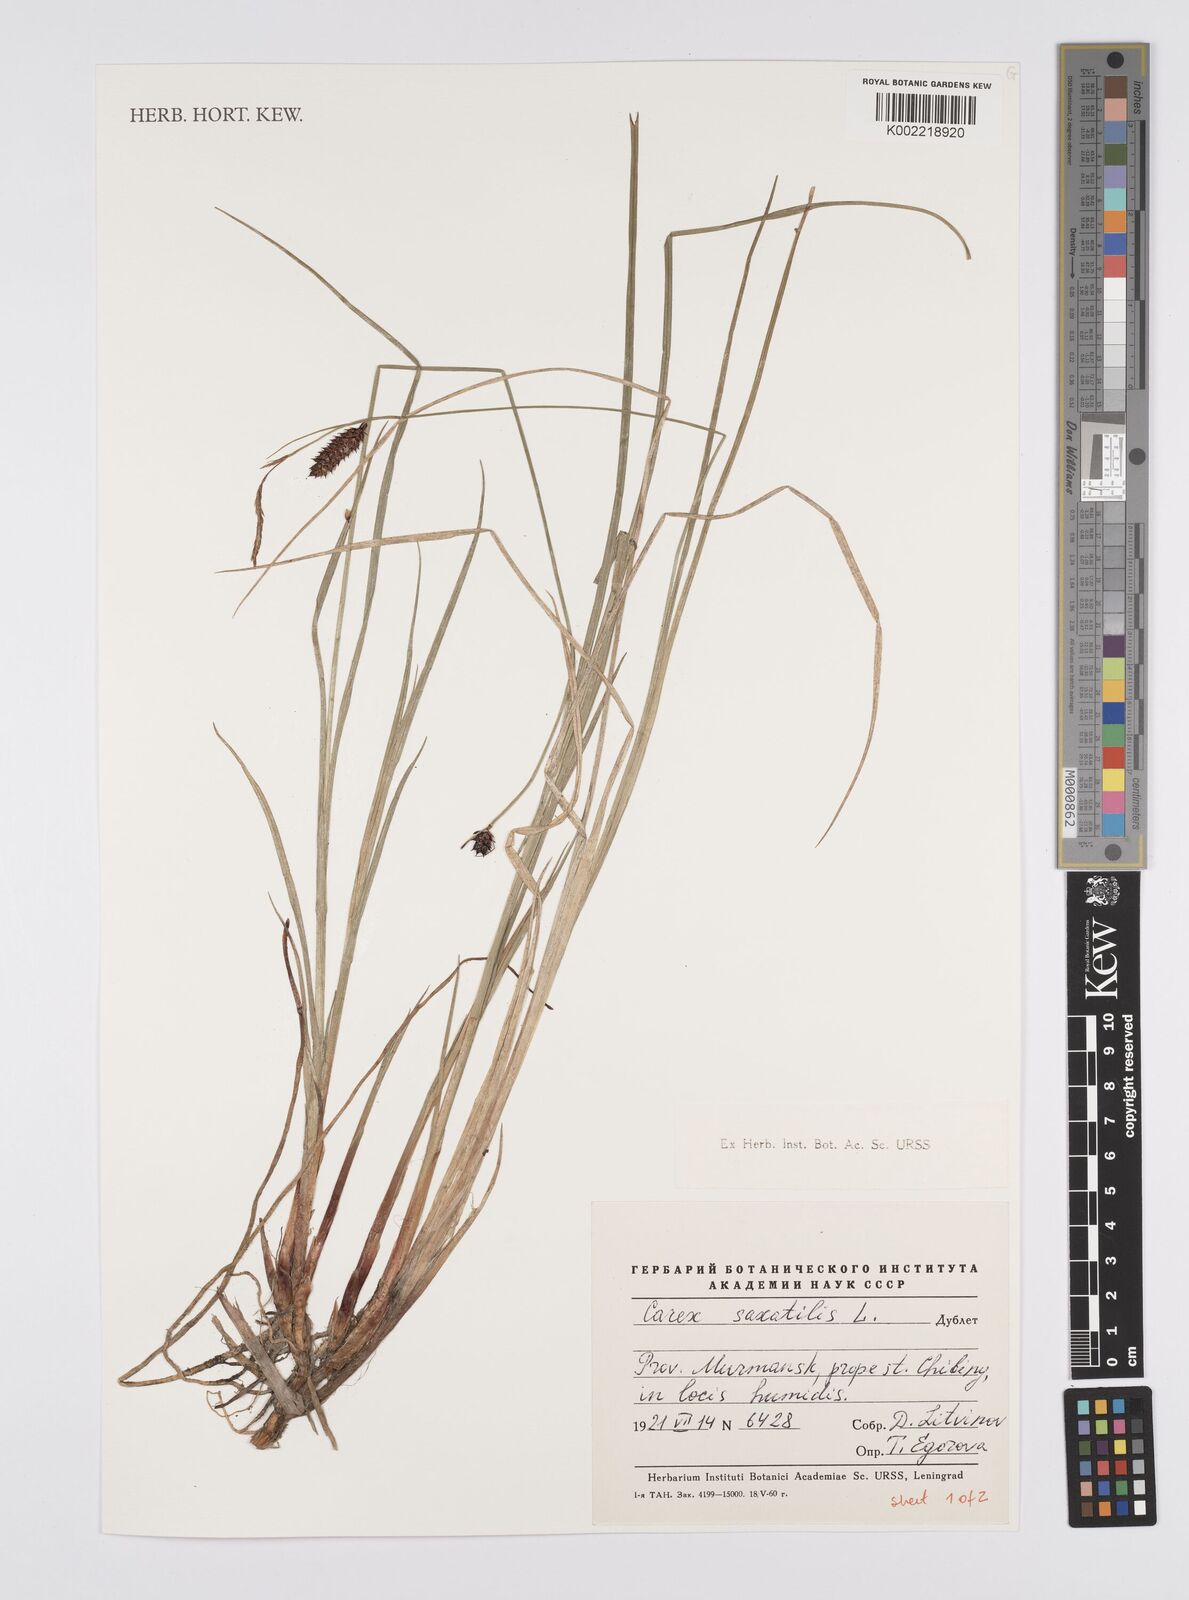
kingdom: Plantae
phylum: Tracheophyta
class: Liliopsida
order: Poales
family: Cyperaceae
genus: Carex
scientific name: Carex saxatilis
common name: Russet sedge
